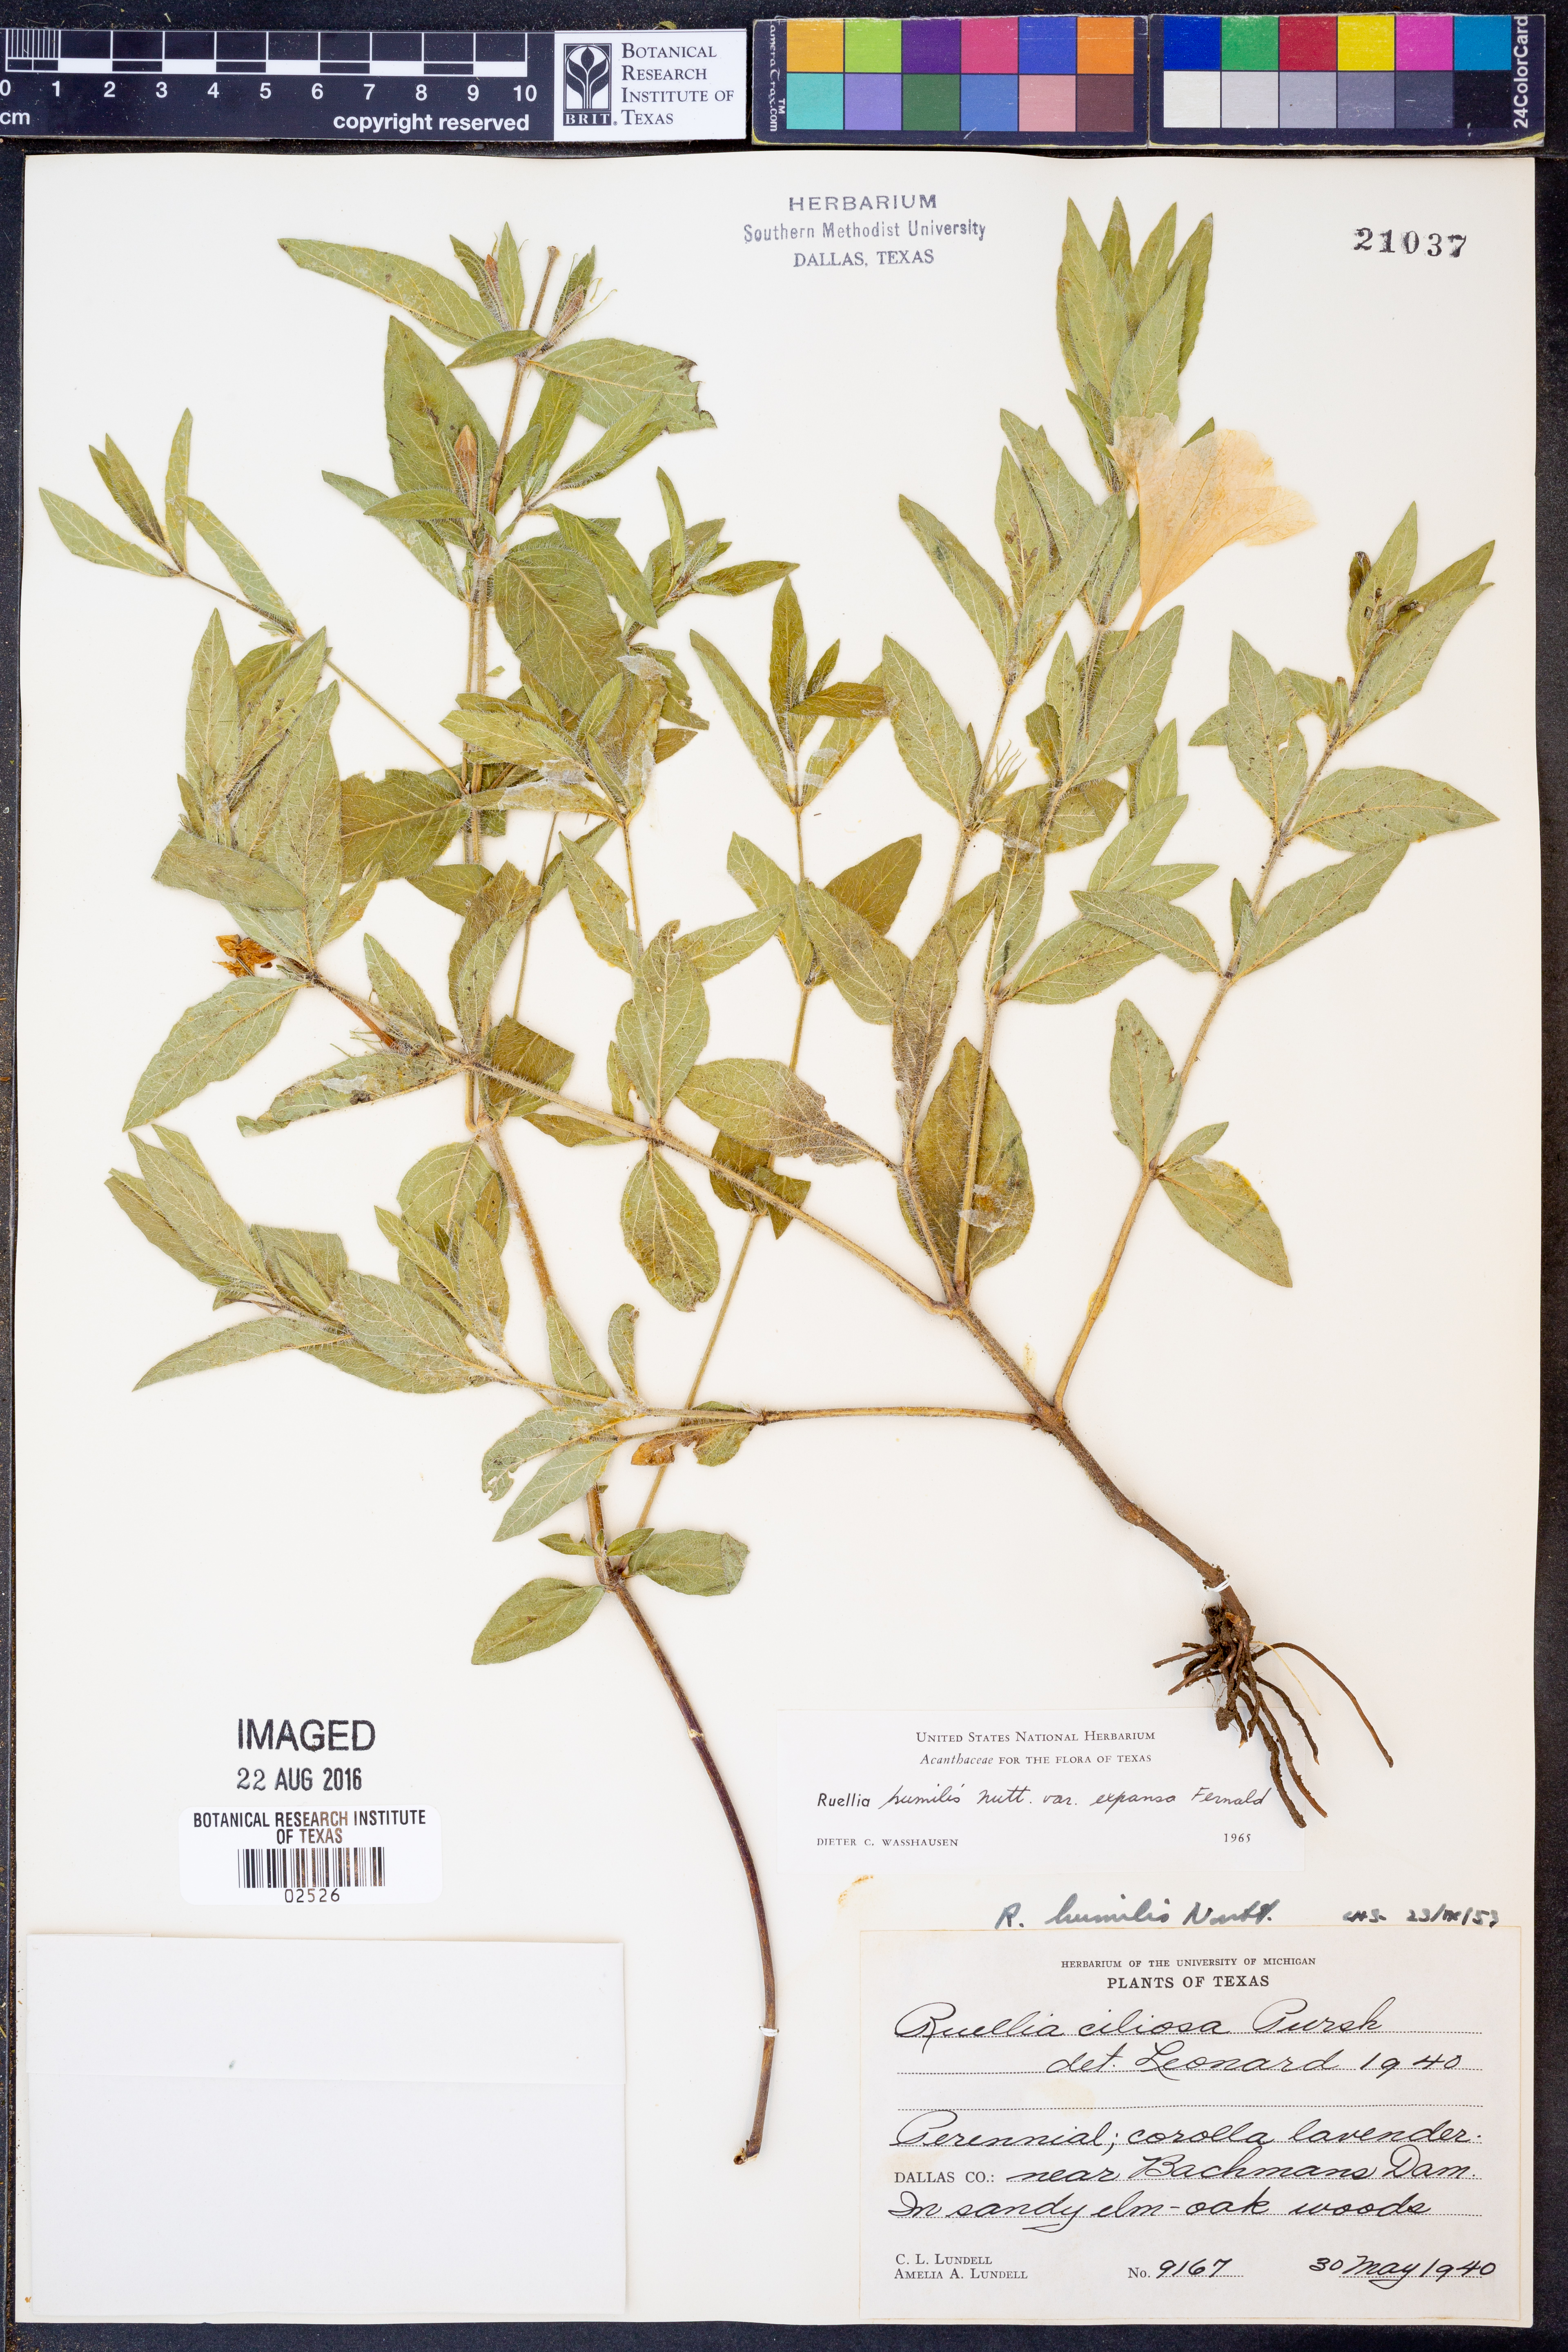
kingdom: Plantae
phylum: Tracheophyta
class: Magnoliopsida
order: Lamiales
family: Acanthaceae
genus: Ruellia
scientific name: Ruellia humilis
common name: Fringe-leaf ruellia
